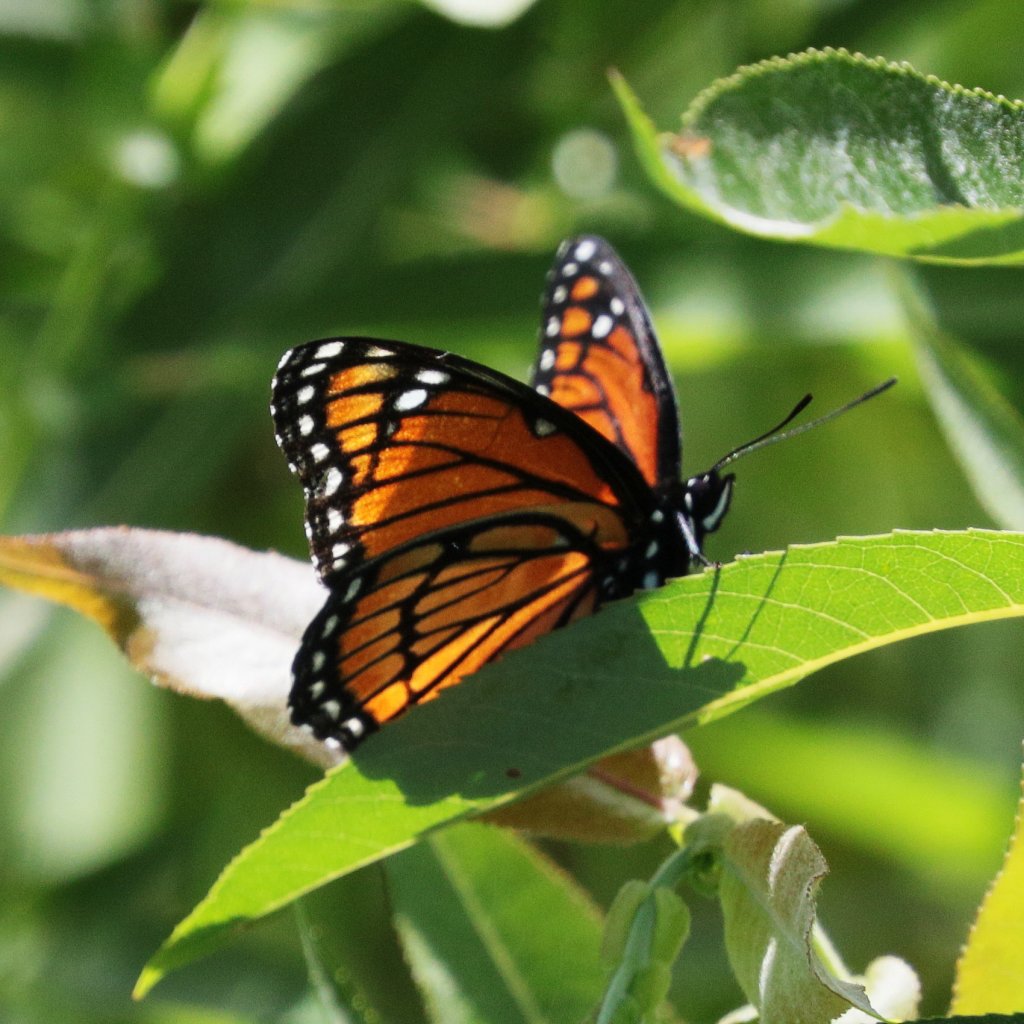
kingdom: Animalia
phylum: Arthropoda
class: Insecta
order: Lepidoptera
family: Nymphalidae
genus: Limenitis
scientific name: Limenitis archippus
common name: Viceroy
